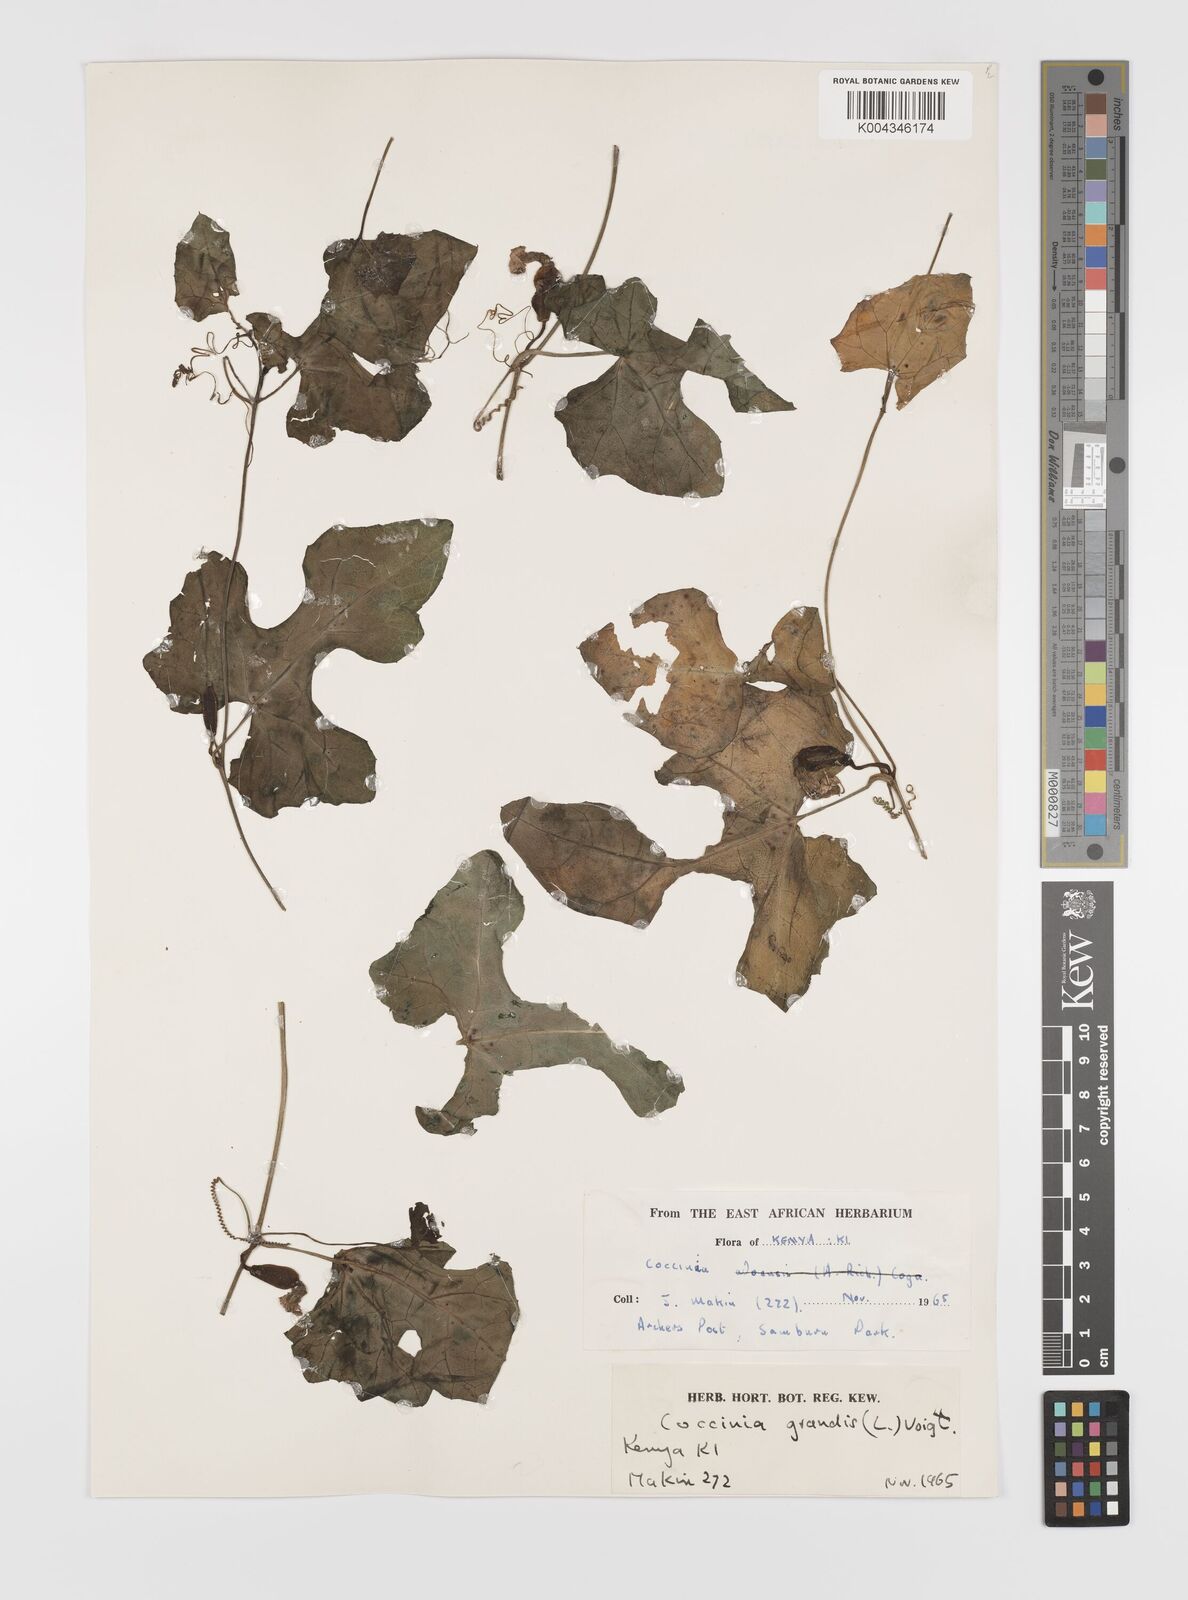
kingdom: Plantae
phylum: Tracheophyta
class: Magnoliopsida
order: Cucurbitales
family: Cucurbitaceae
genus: Coccinia
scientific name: Coccinia grandis
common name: Ivy gourd
